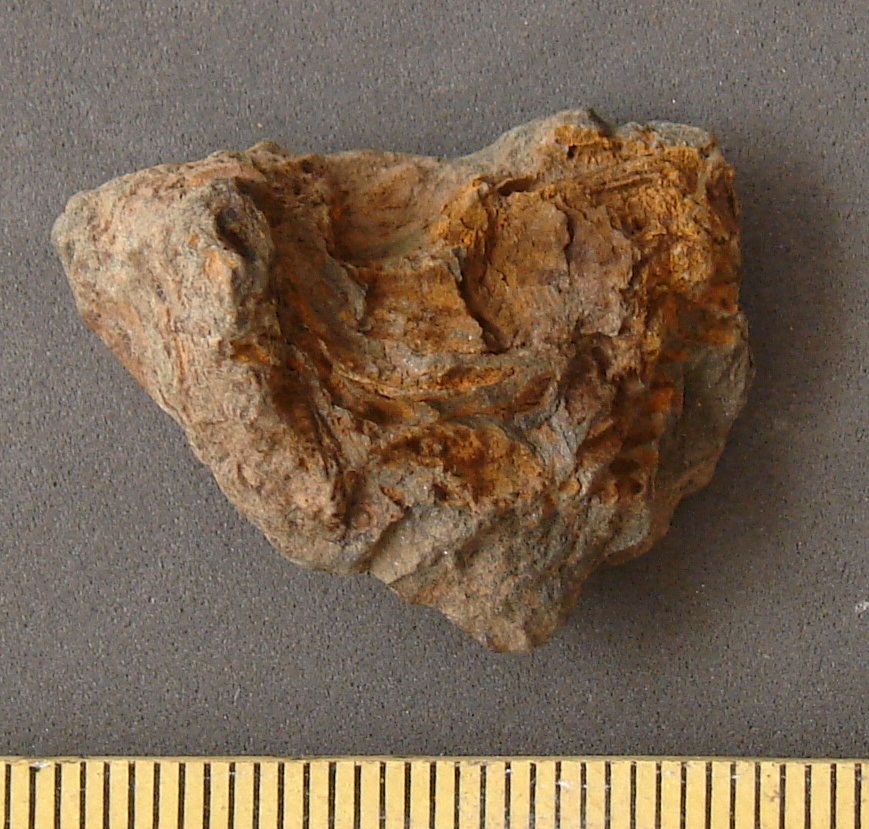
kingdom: Animalia
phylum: Echinodermata
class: Crinoidea
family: Rhodocrinitidae
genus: Acanthocrinus
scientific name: Acanthocrinus
